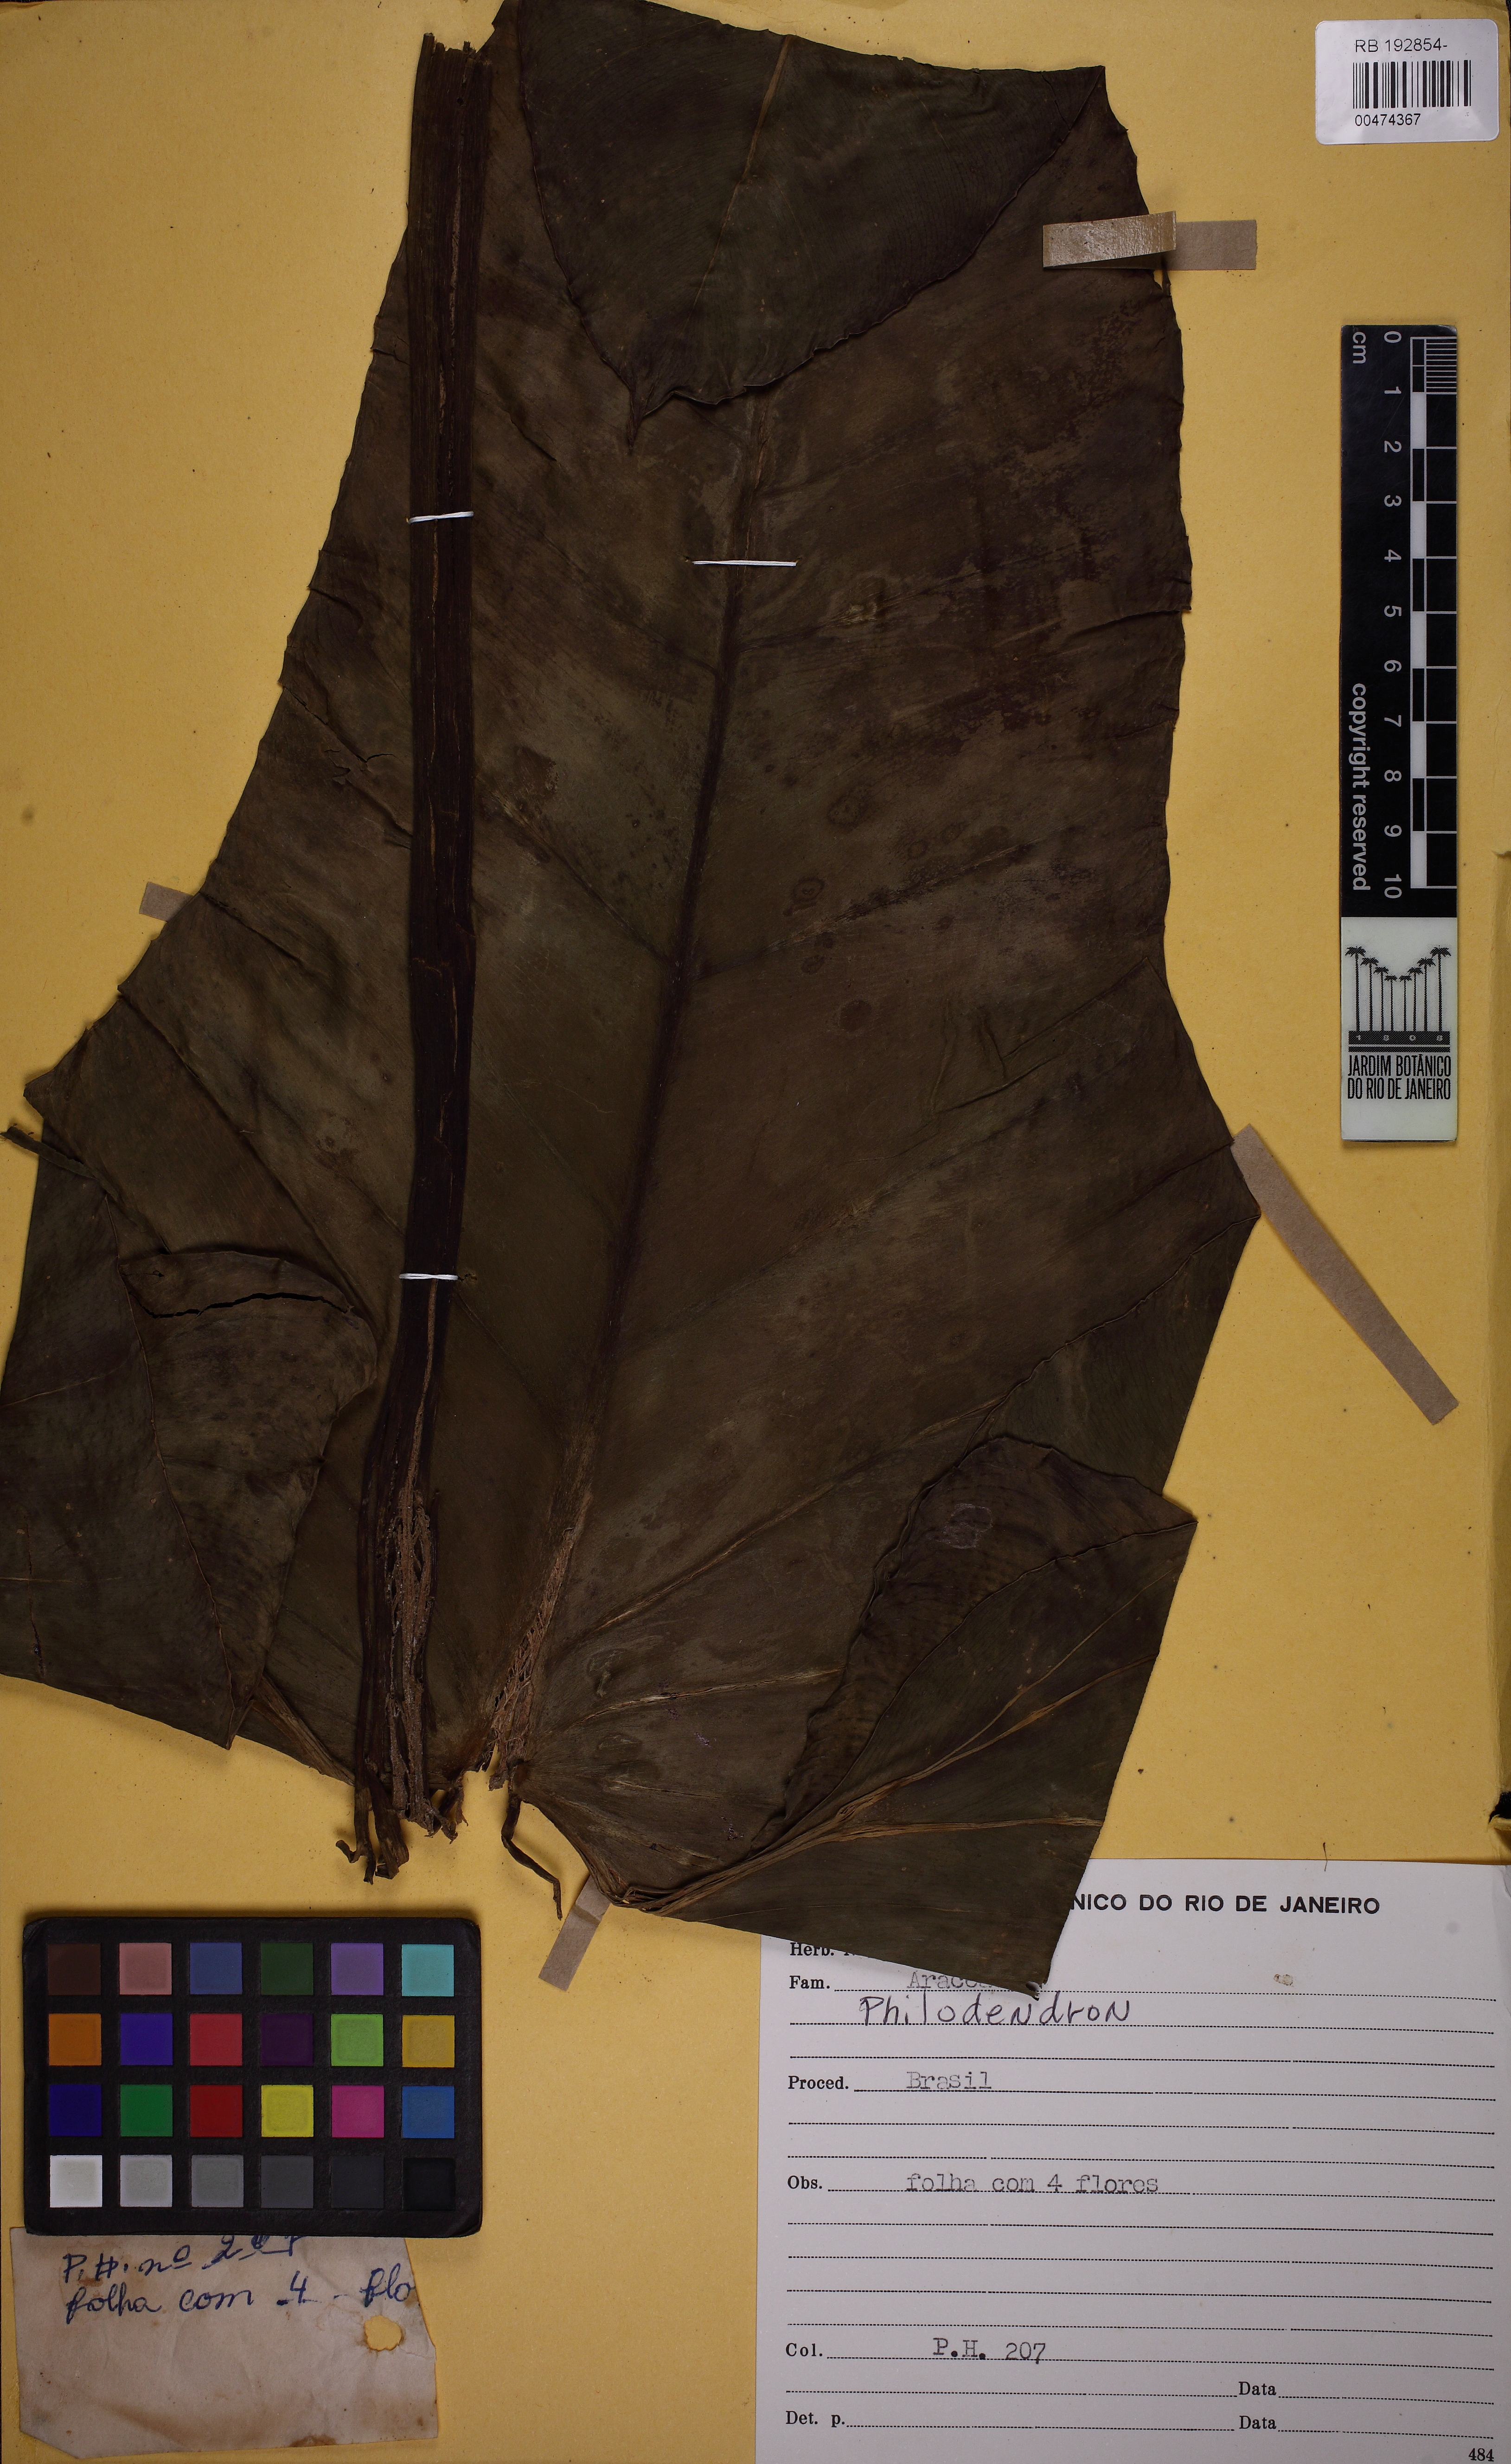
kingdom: Plantae
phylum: Tracheophyta
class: Liliopsida
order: Alismatales
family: Araceae
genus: Philodendron
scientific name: Philodendron
